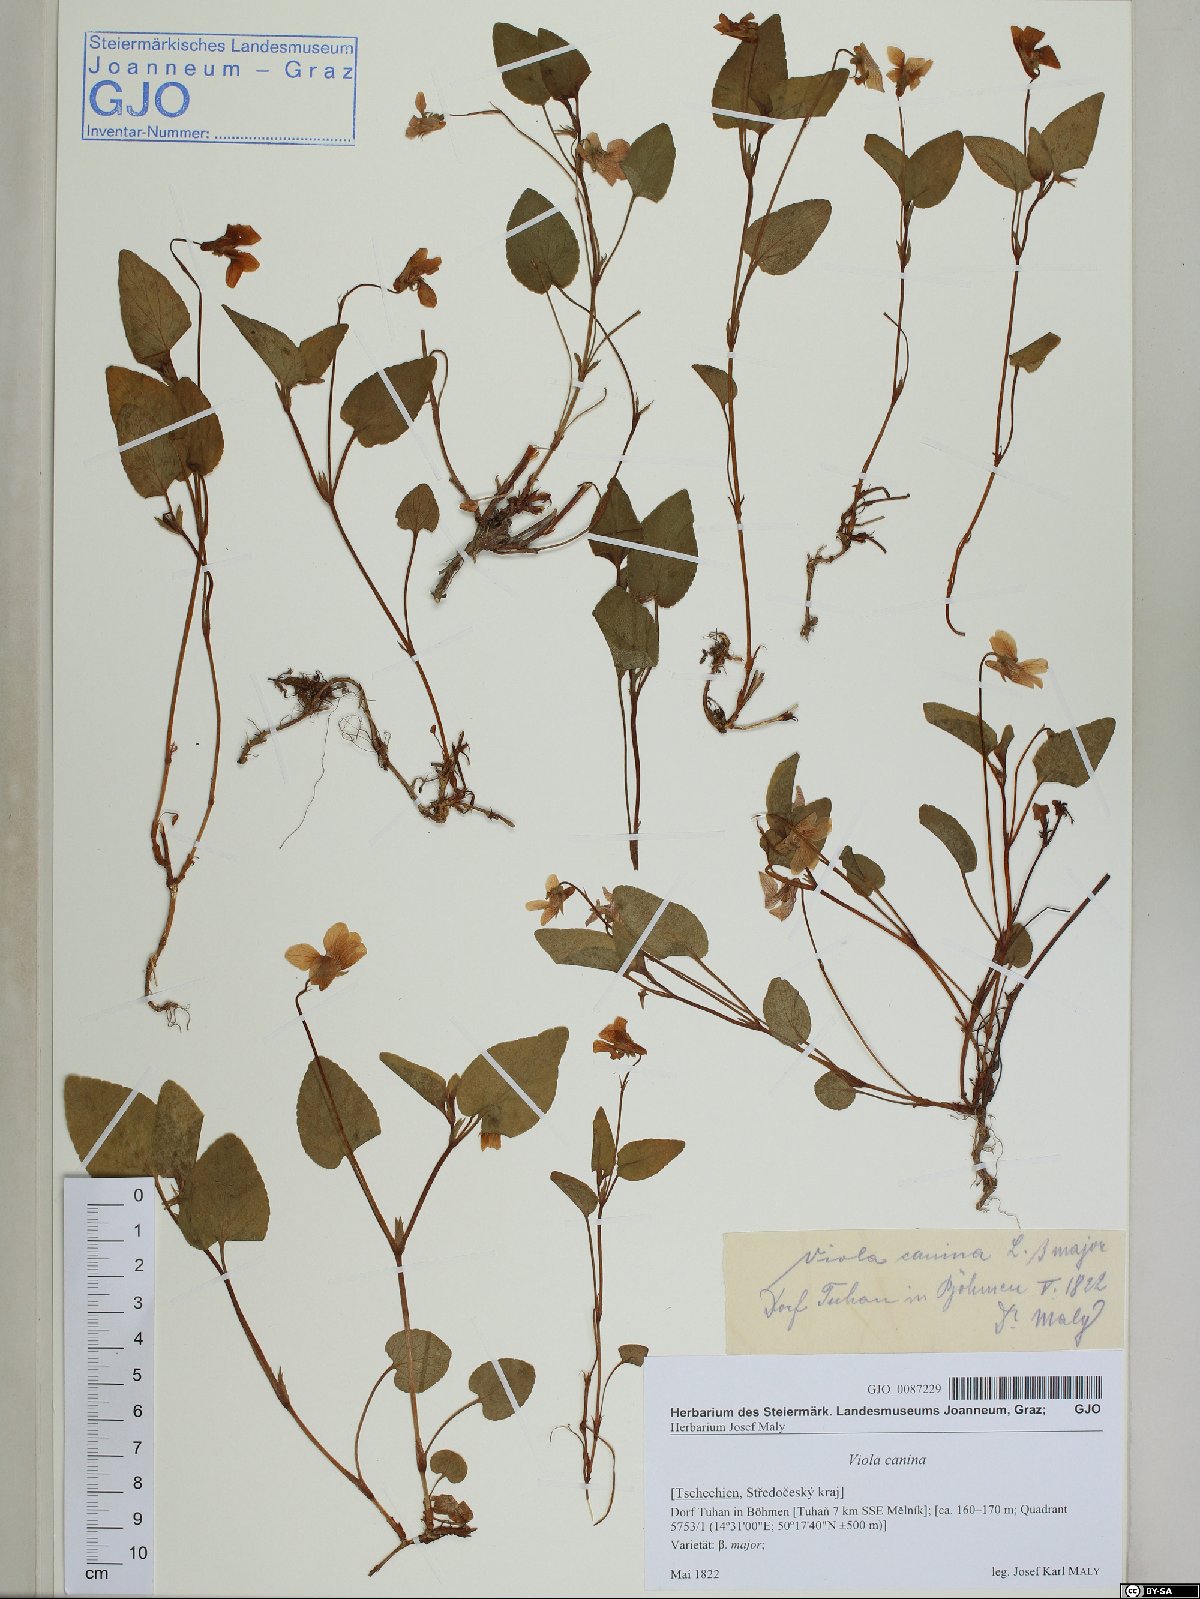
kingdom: Plantae
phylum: Tracheophyta
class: Magnoliopsida
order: Malpighiales
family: Violaceae
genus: Viola
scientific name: Viola canina
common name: Heath dog-violet
